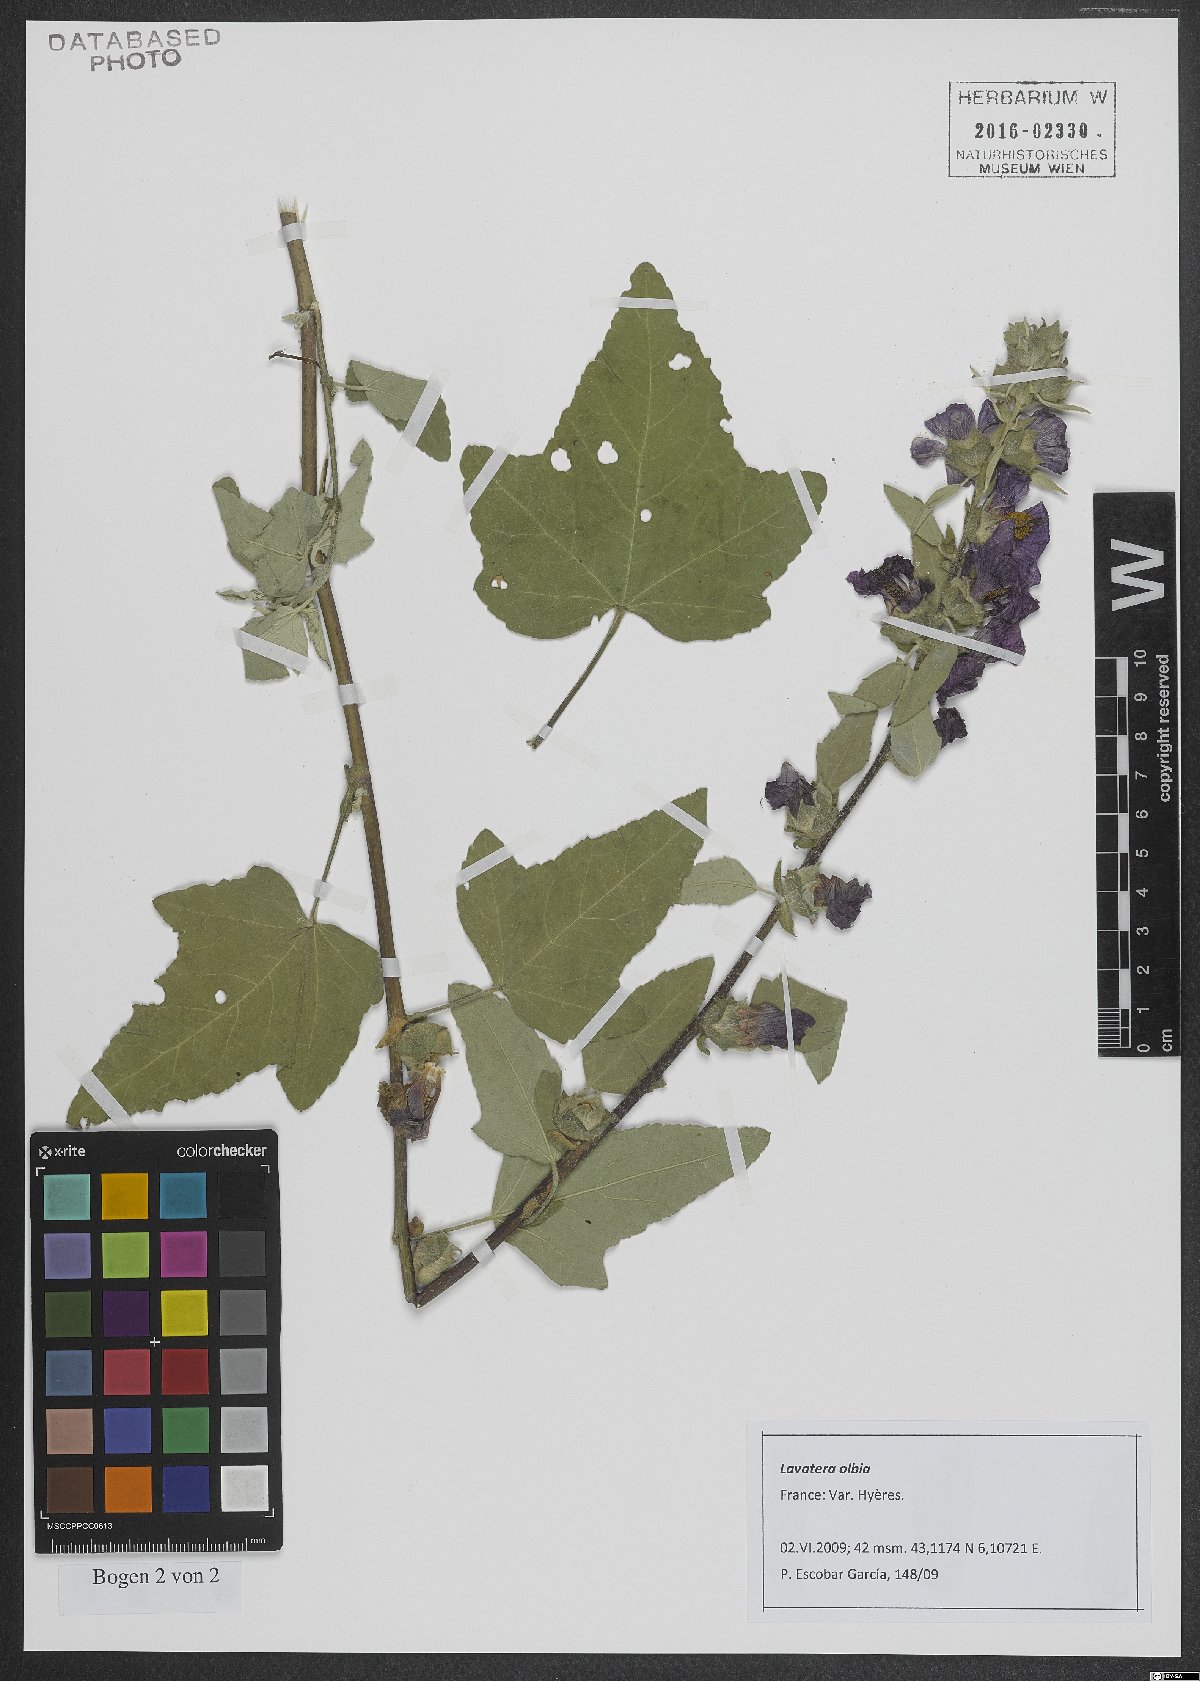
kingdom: Plantae
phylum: Tracheophyta
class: Magnoliopsida
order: Malvales
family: Malvaceae
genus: Malva
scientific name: Malva olbia
